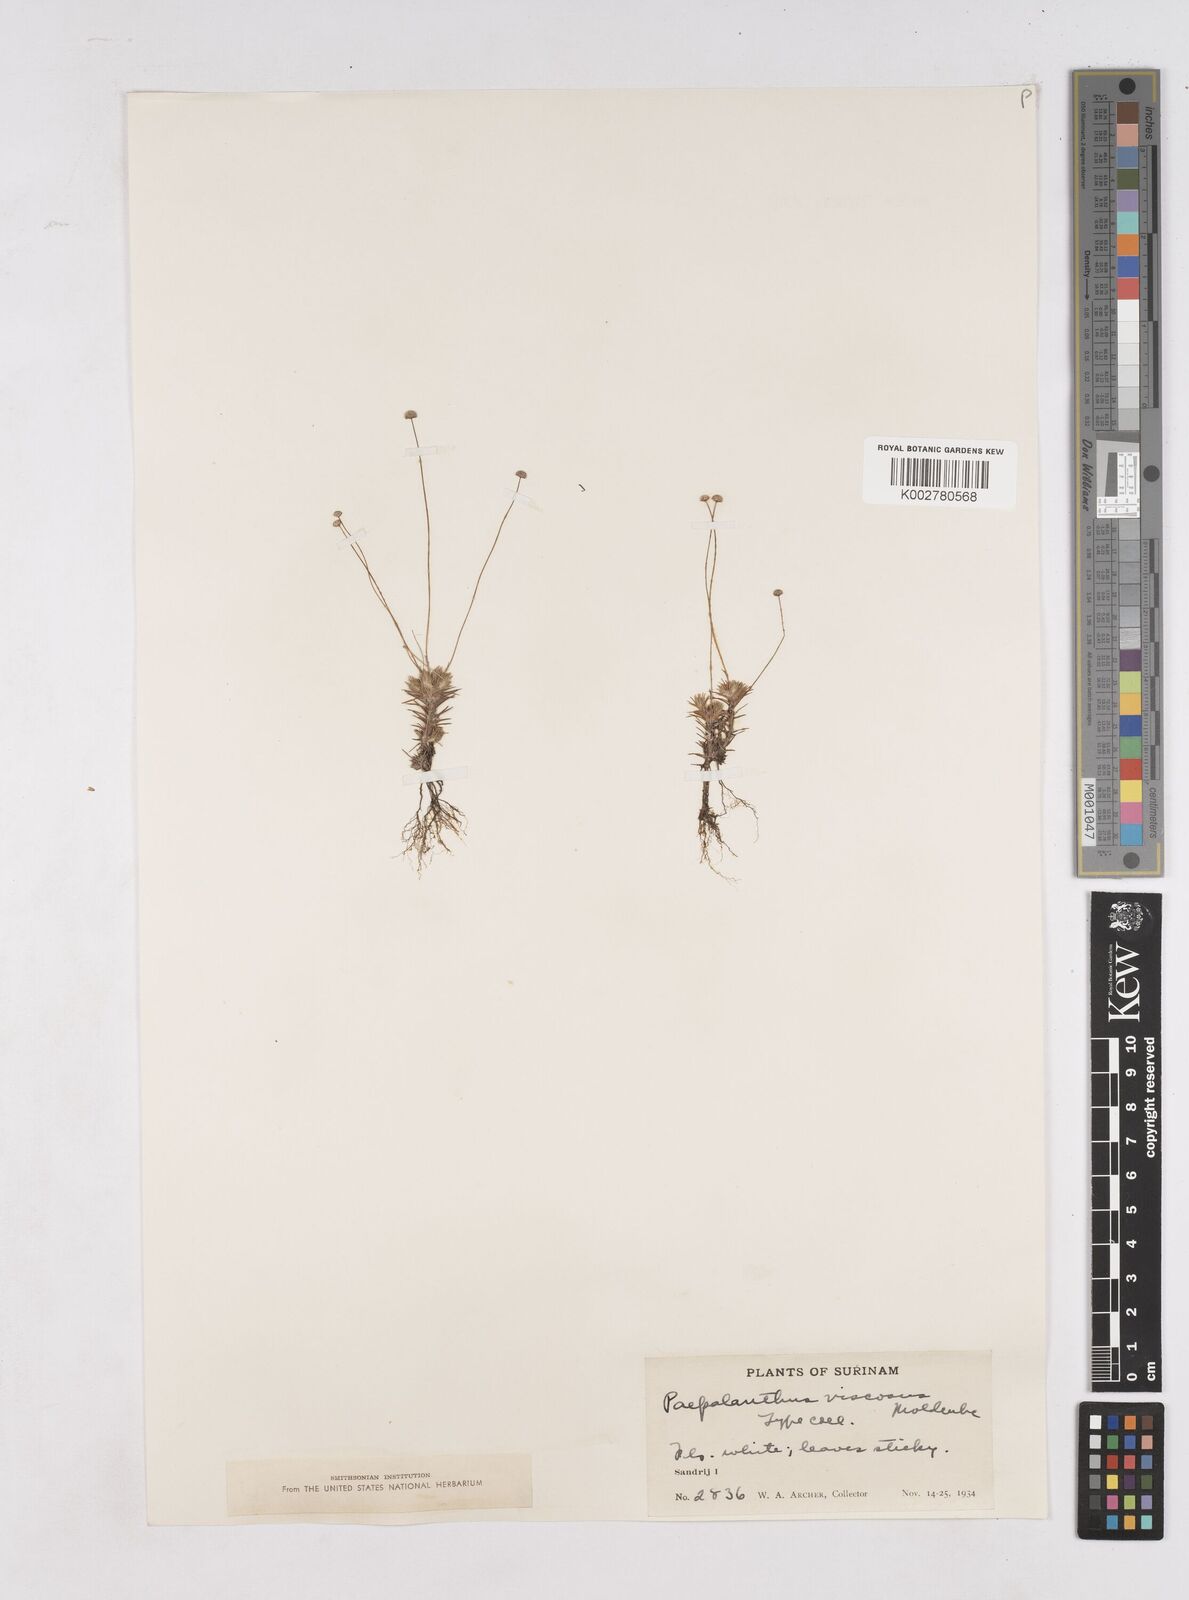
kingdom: Plantae
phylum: Tracheophyta
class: Liliopsida
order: Poales
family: Eriocaulaceae
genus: Paepalanthus
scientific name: Paepalanthus polytrichoides
